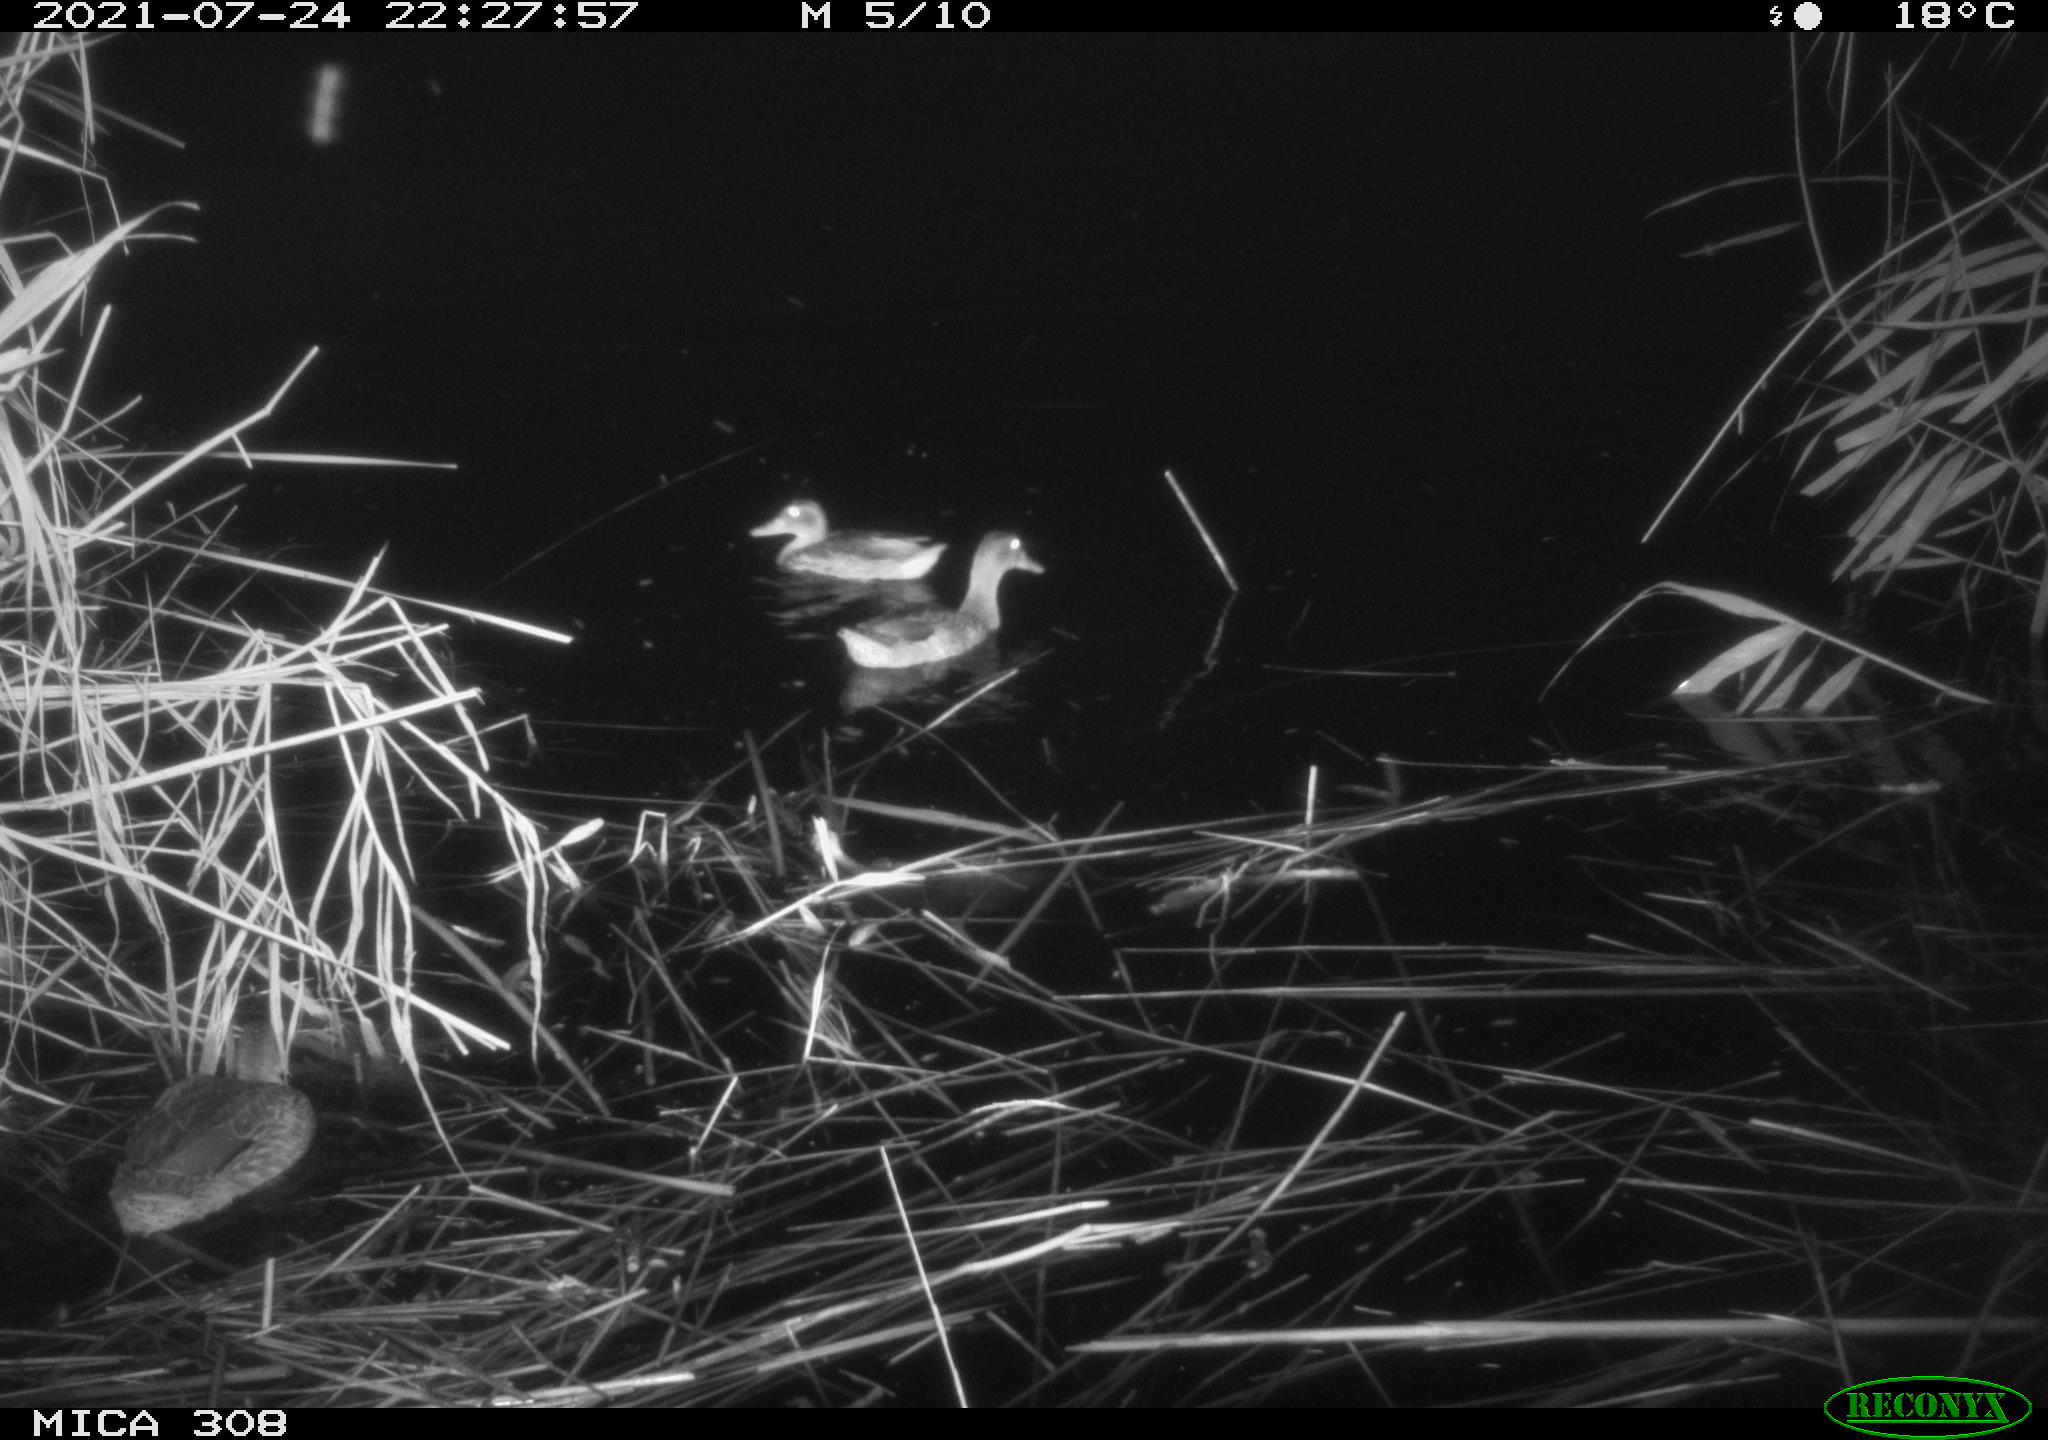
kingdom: Animalia
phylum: Chordata
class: Aves
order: Anseriformes
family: Anatidae
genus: Anas
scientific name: Anas platyrhynchos
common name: Mallard
